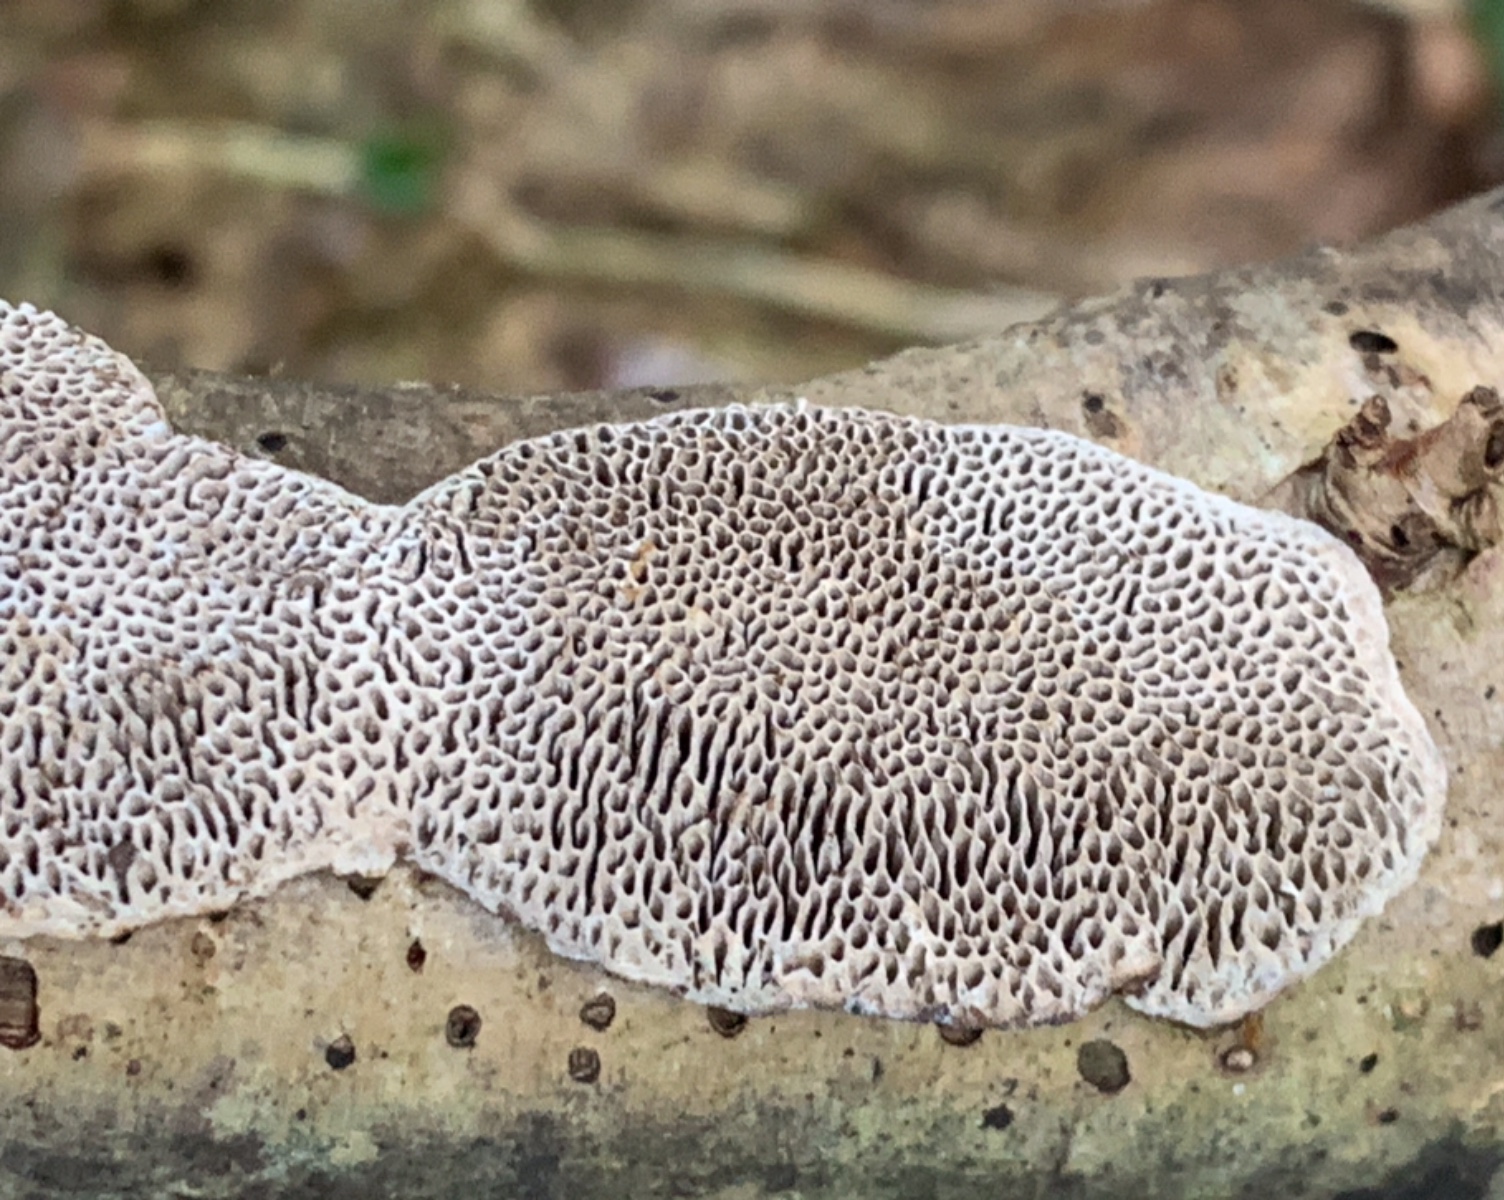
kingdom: Fungi
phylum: Basidiomycota
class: Agaricomycetes
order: Polyporales
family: Polyporaceae
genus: Podofomes
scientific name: Podofomes mollis
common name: blød begporesvamp
